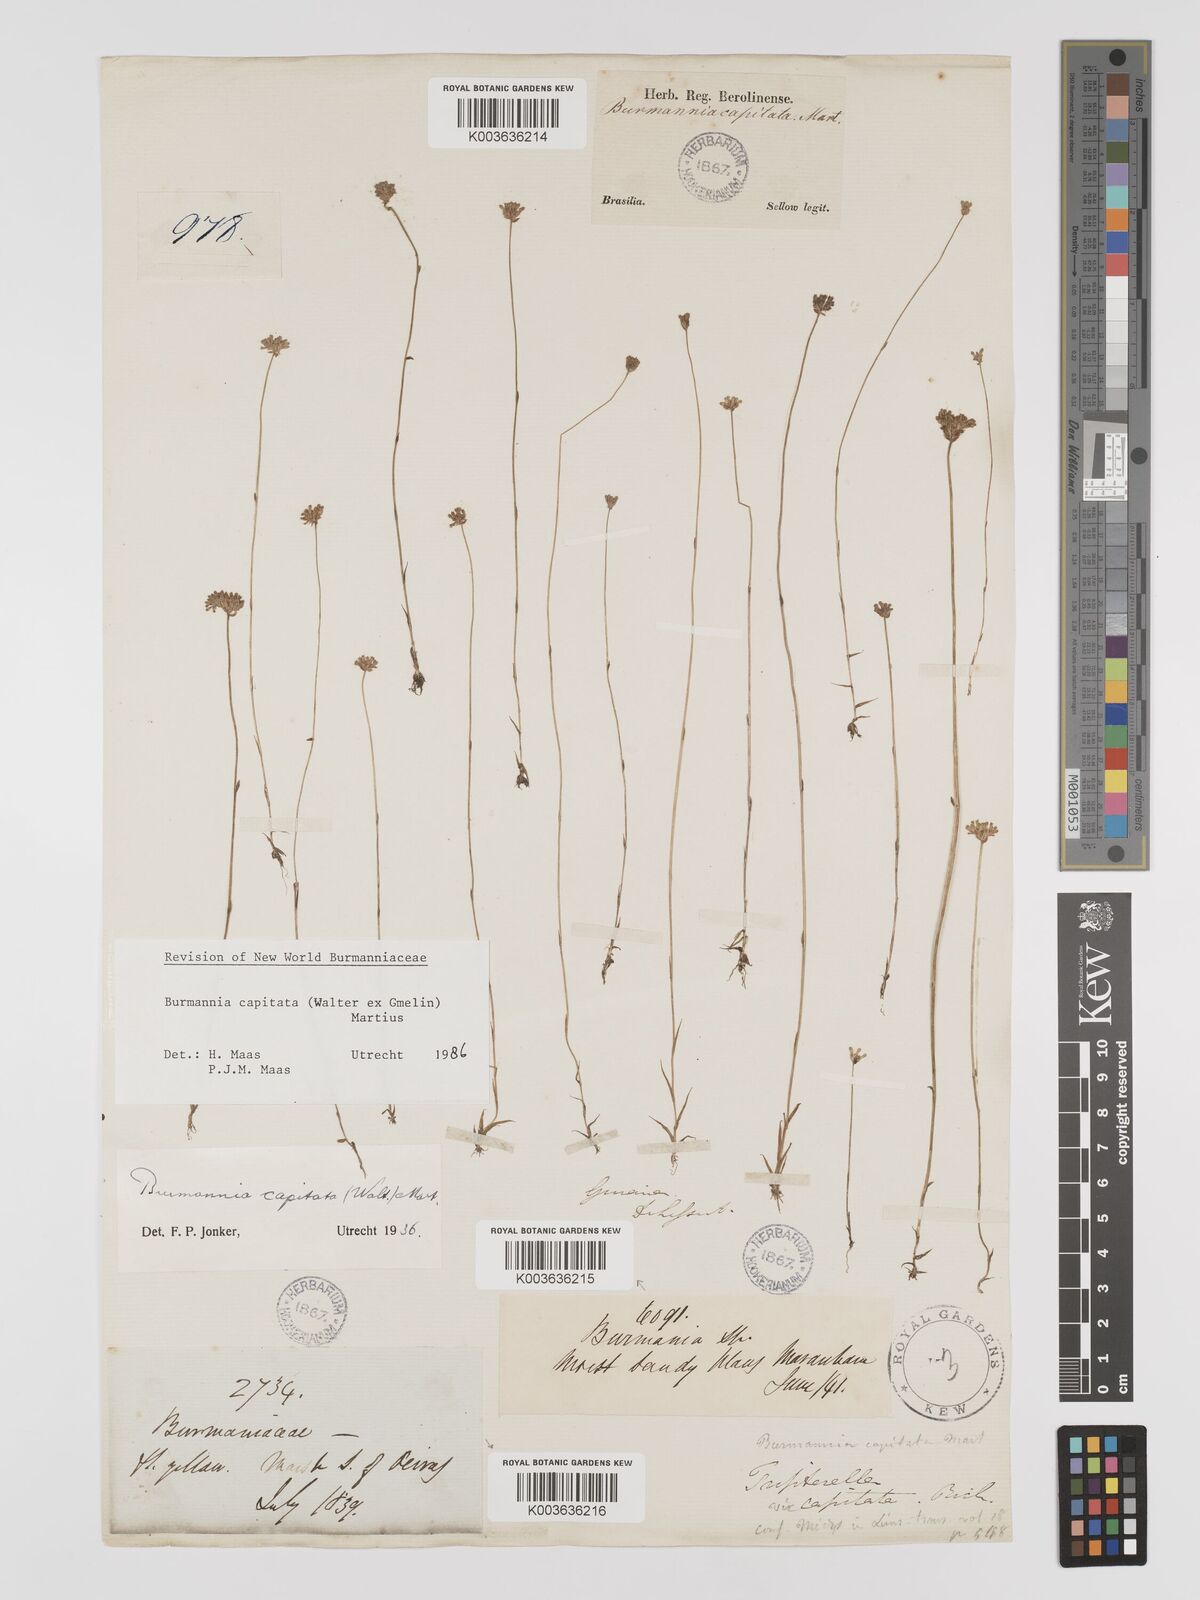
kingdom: Plantae
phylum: Tracheophyta
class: Liliopsida
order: Dioscoreales
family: Burmanniaceae
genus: Burmannia
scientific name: Burmannia capitata
